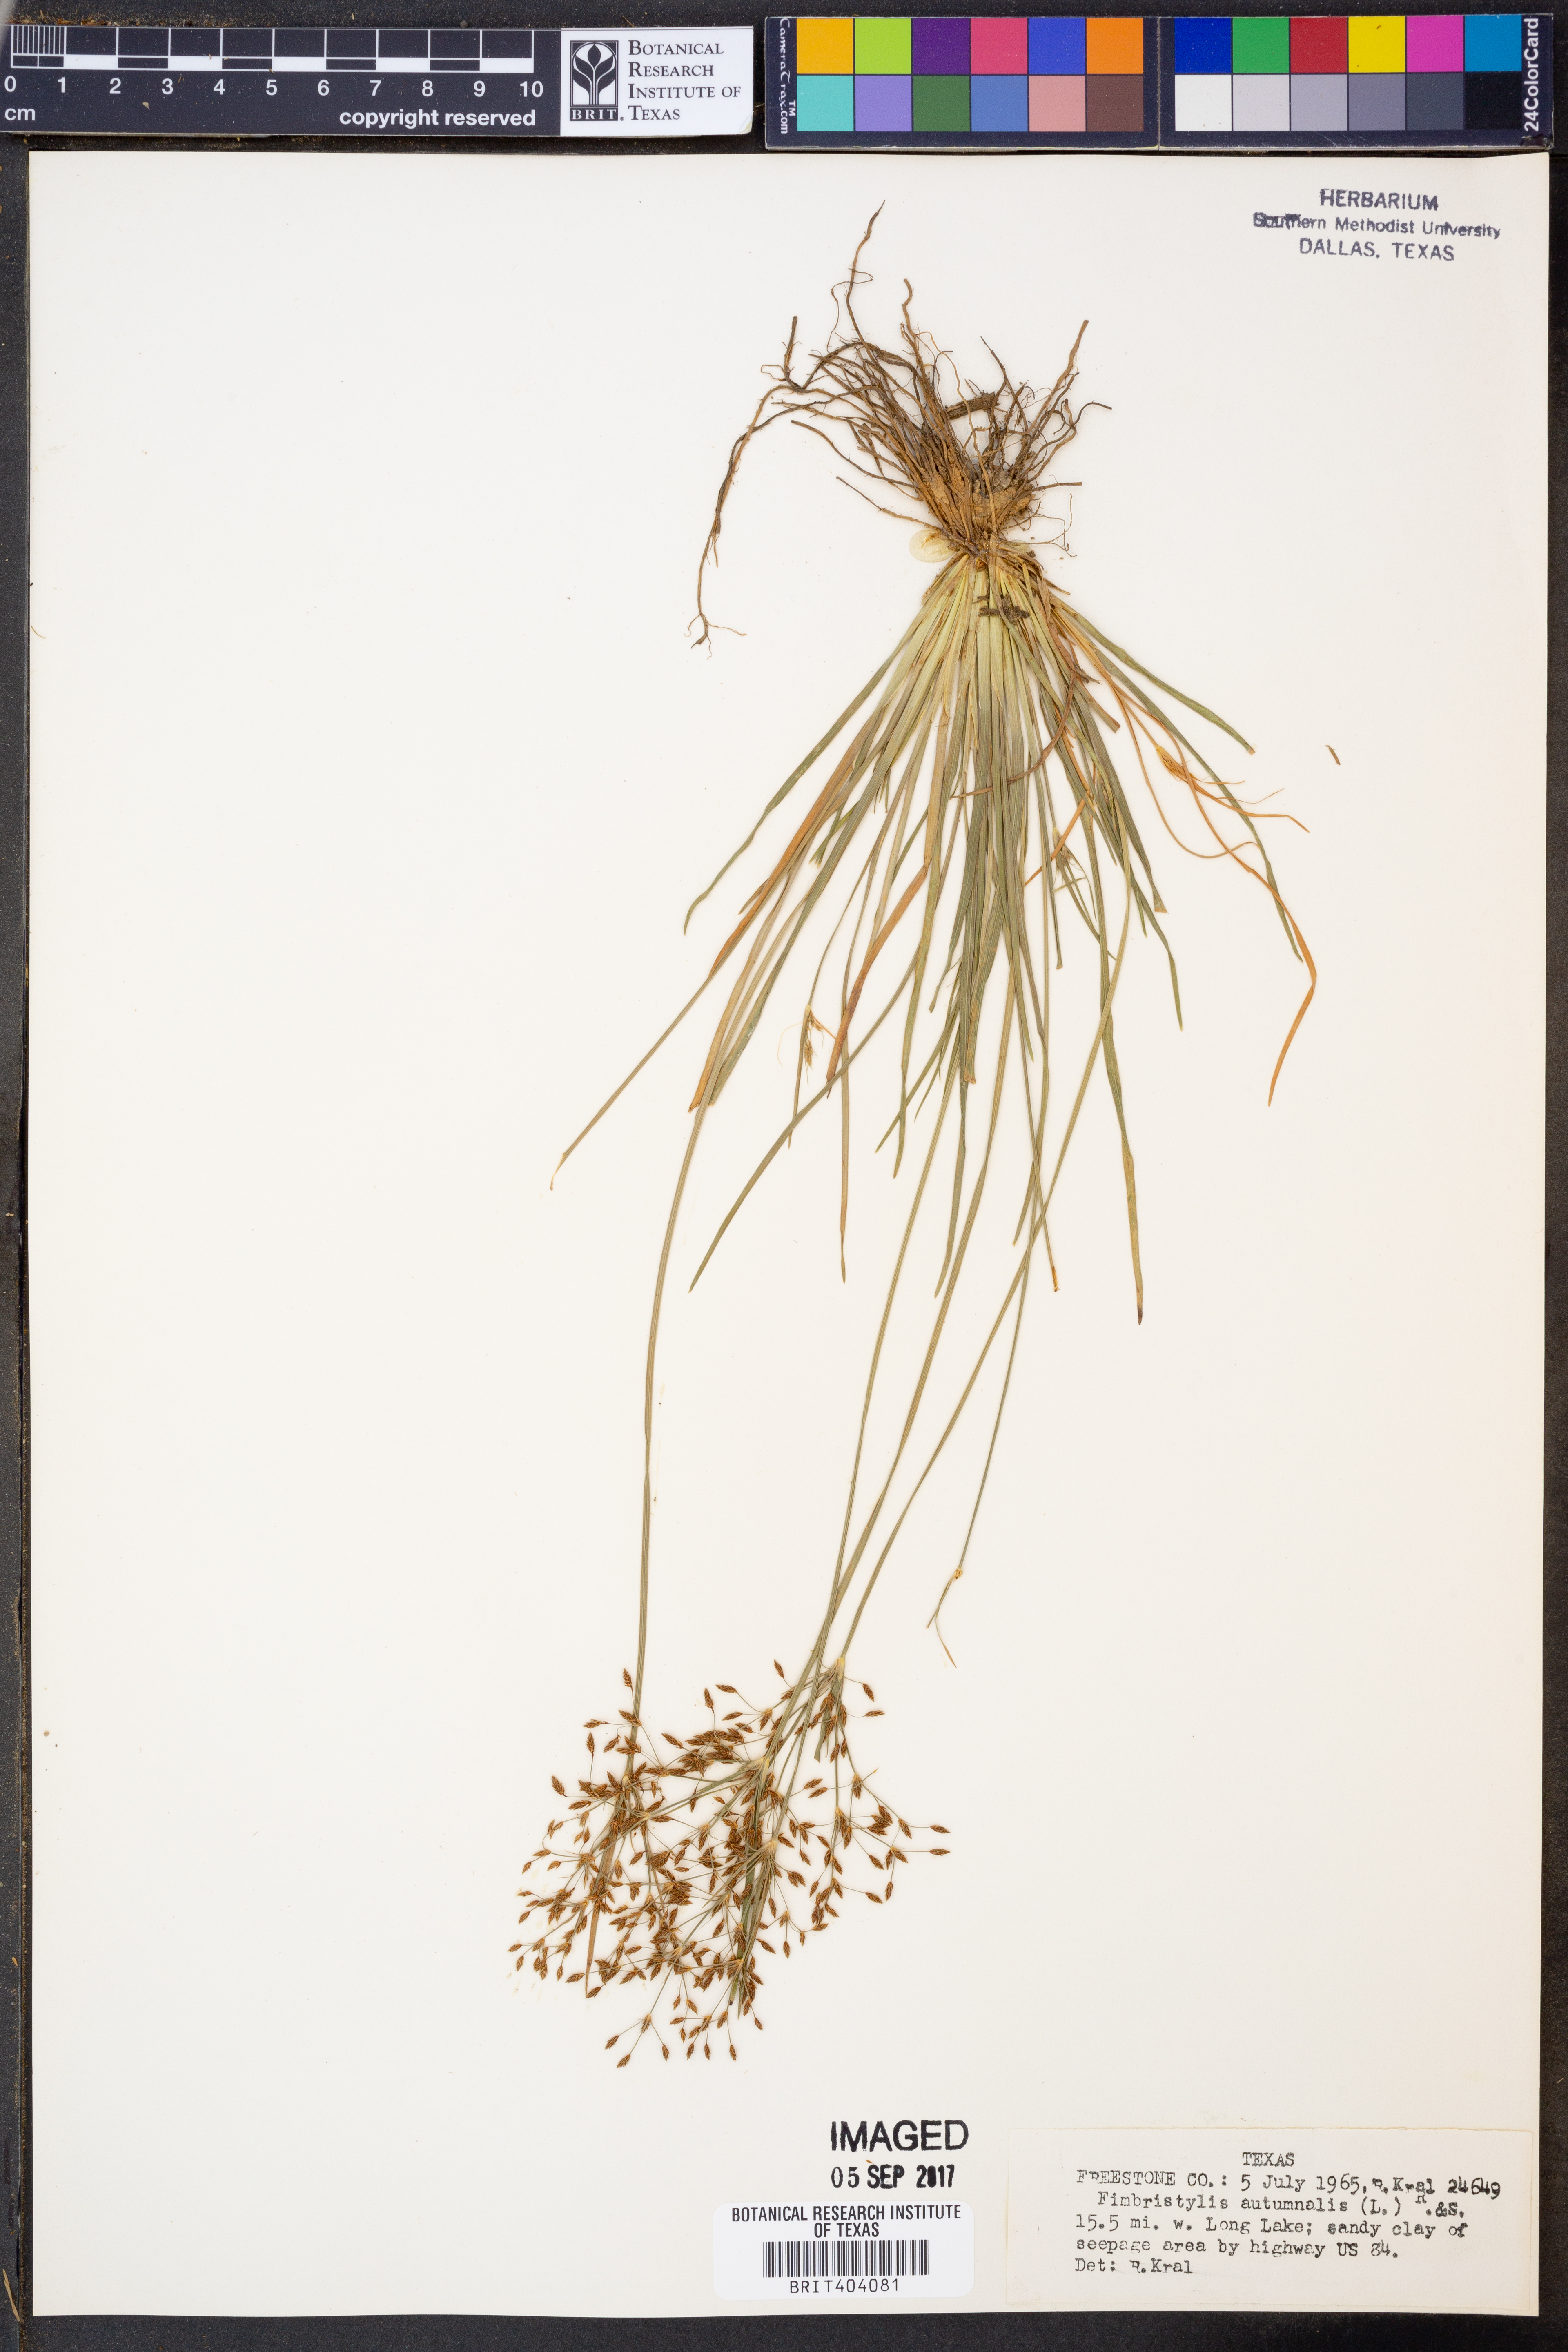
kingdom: Plantae
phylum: Tracheophyta
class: Liliopsida
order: Poales
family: Cyperaceae
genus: Fimbristylis
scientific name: Fimbristylis autumnalis
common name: Slender fimbristylis
